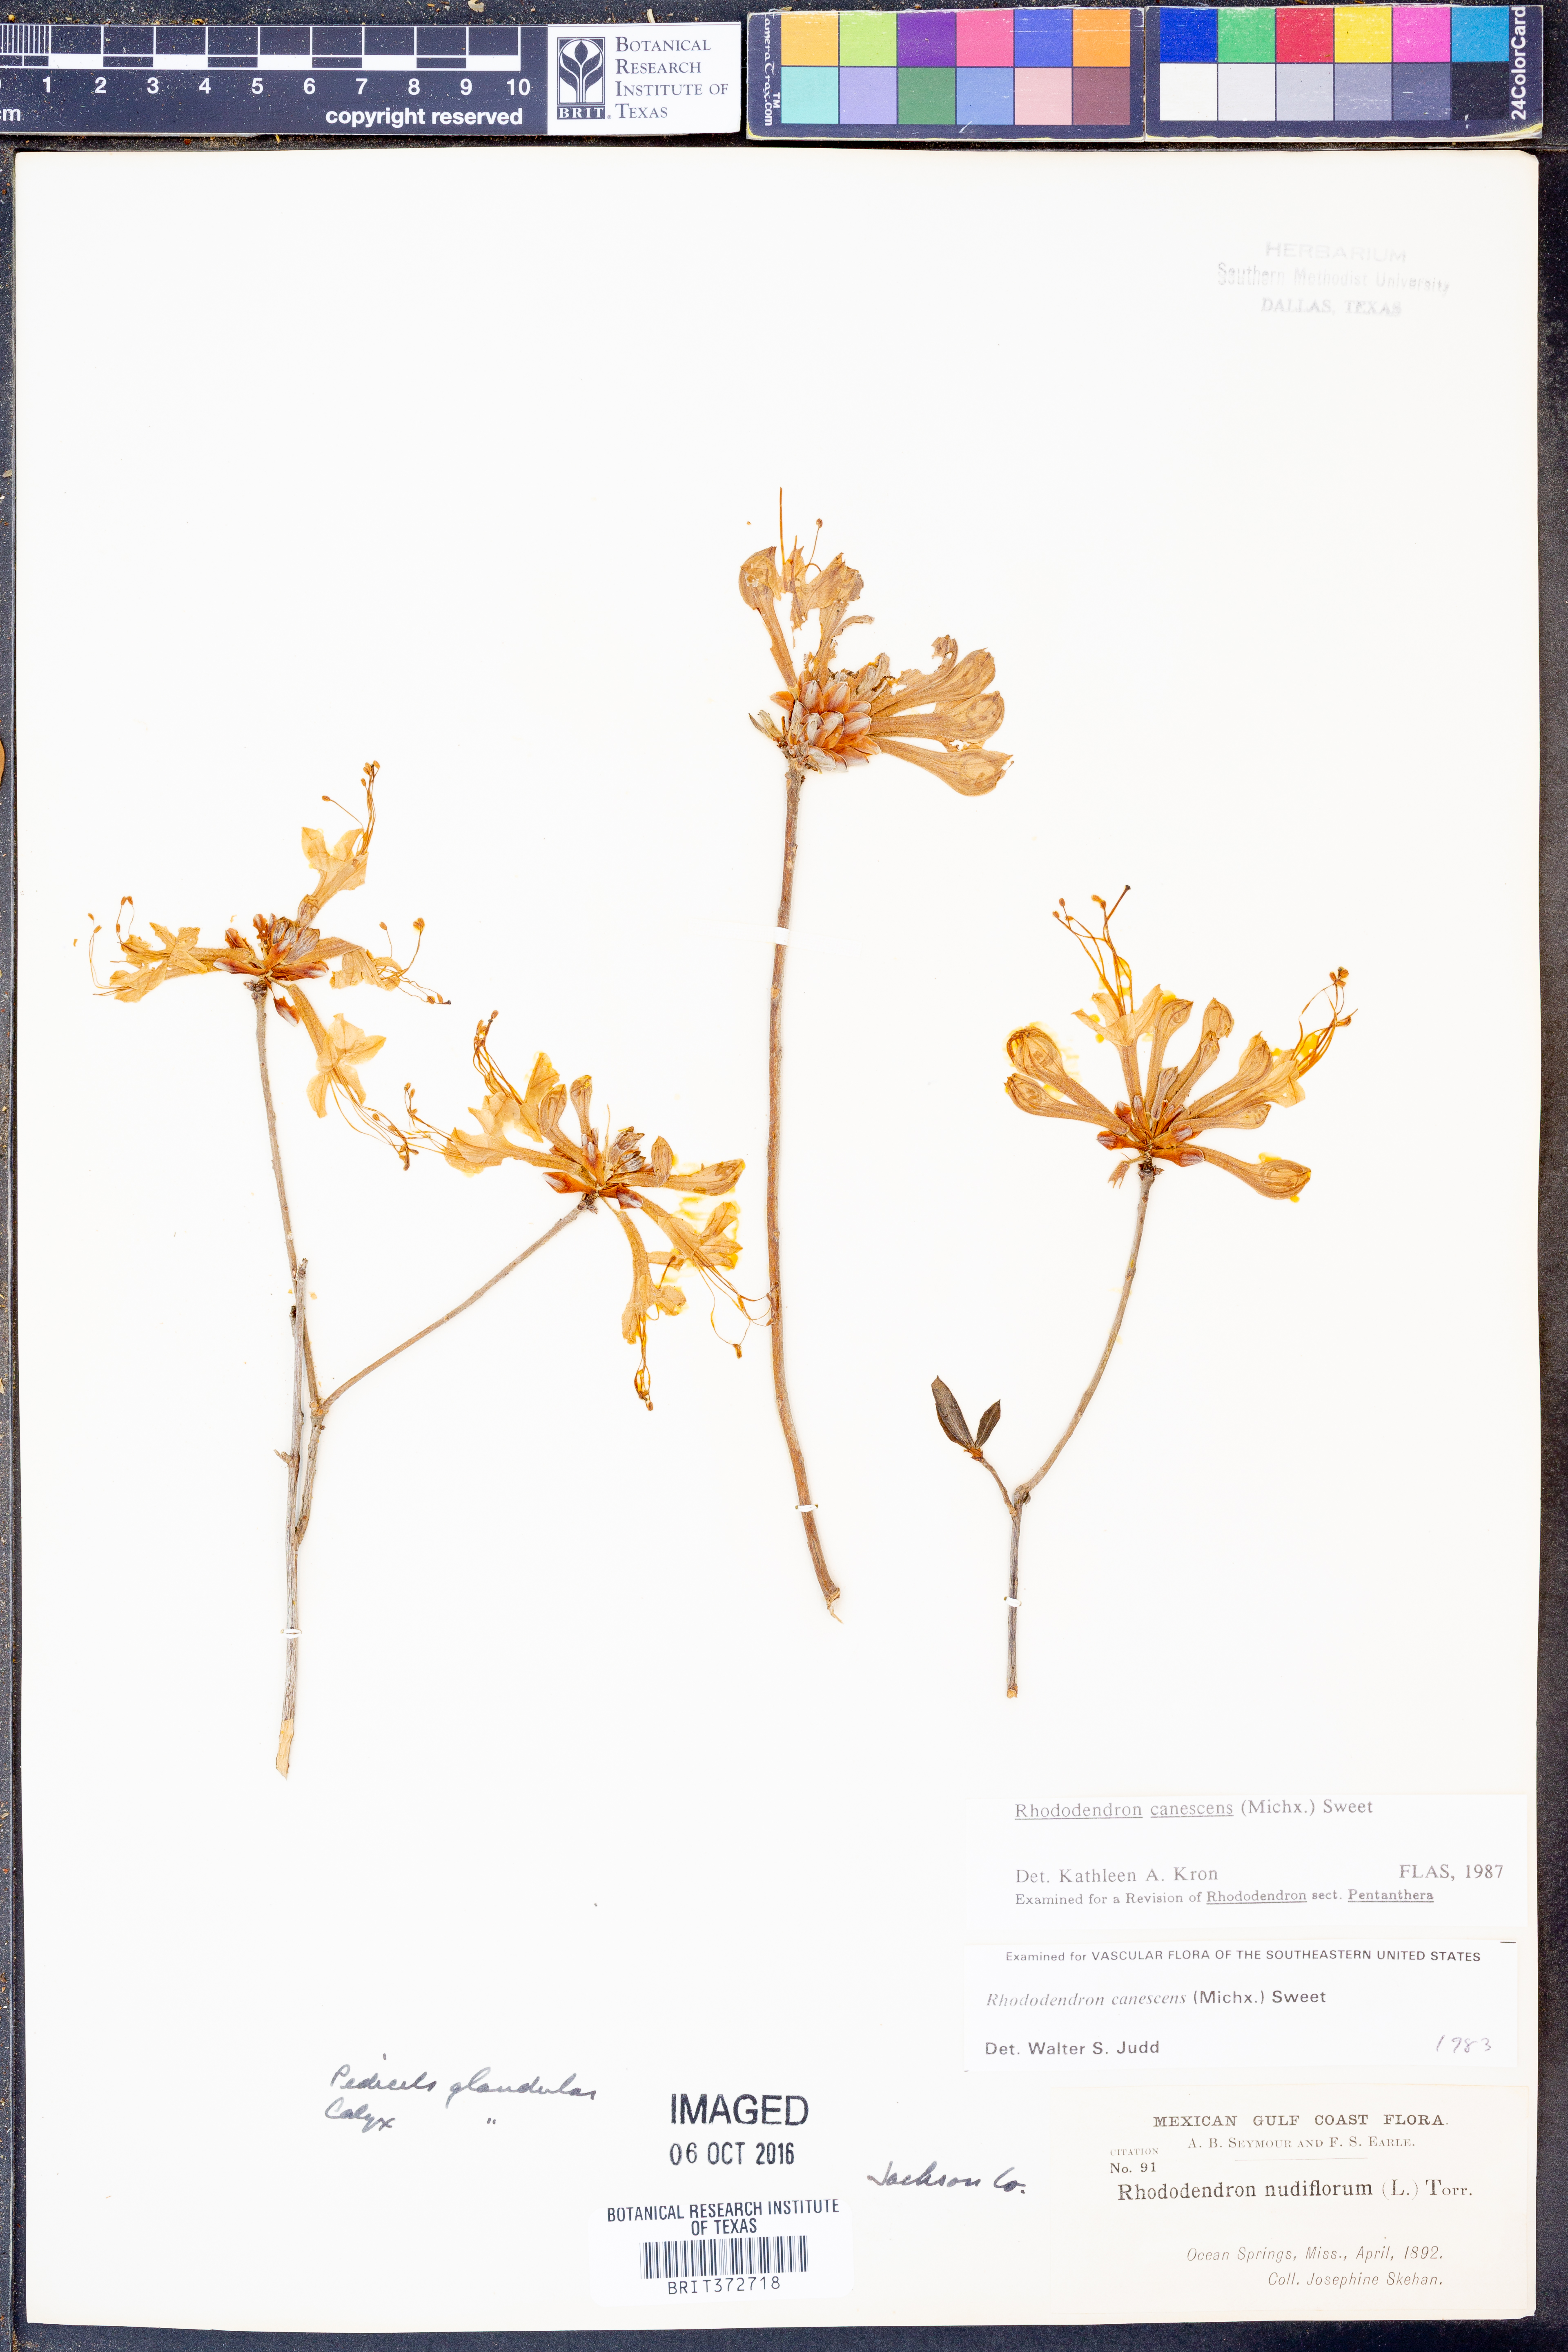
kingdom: Plantae
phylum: Tracheophyta
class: Magnoliopsida
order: Ericales
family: Ericaceae
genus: Rhododendron
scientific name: Rhododendron canescens
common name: Mountain azalea
